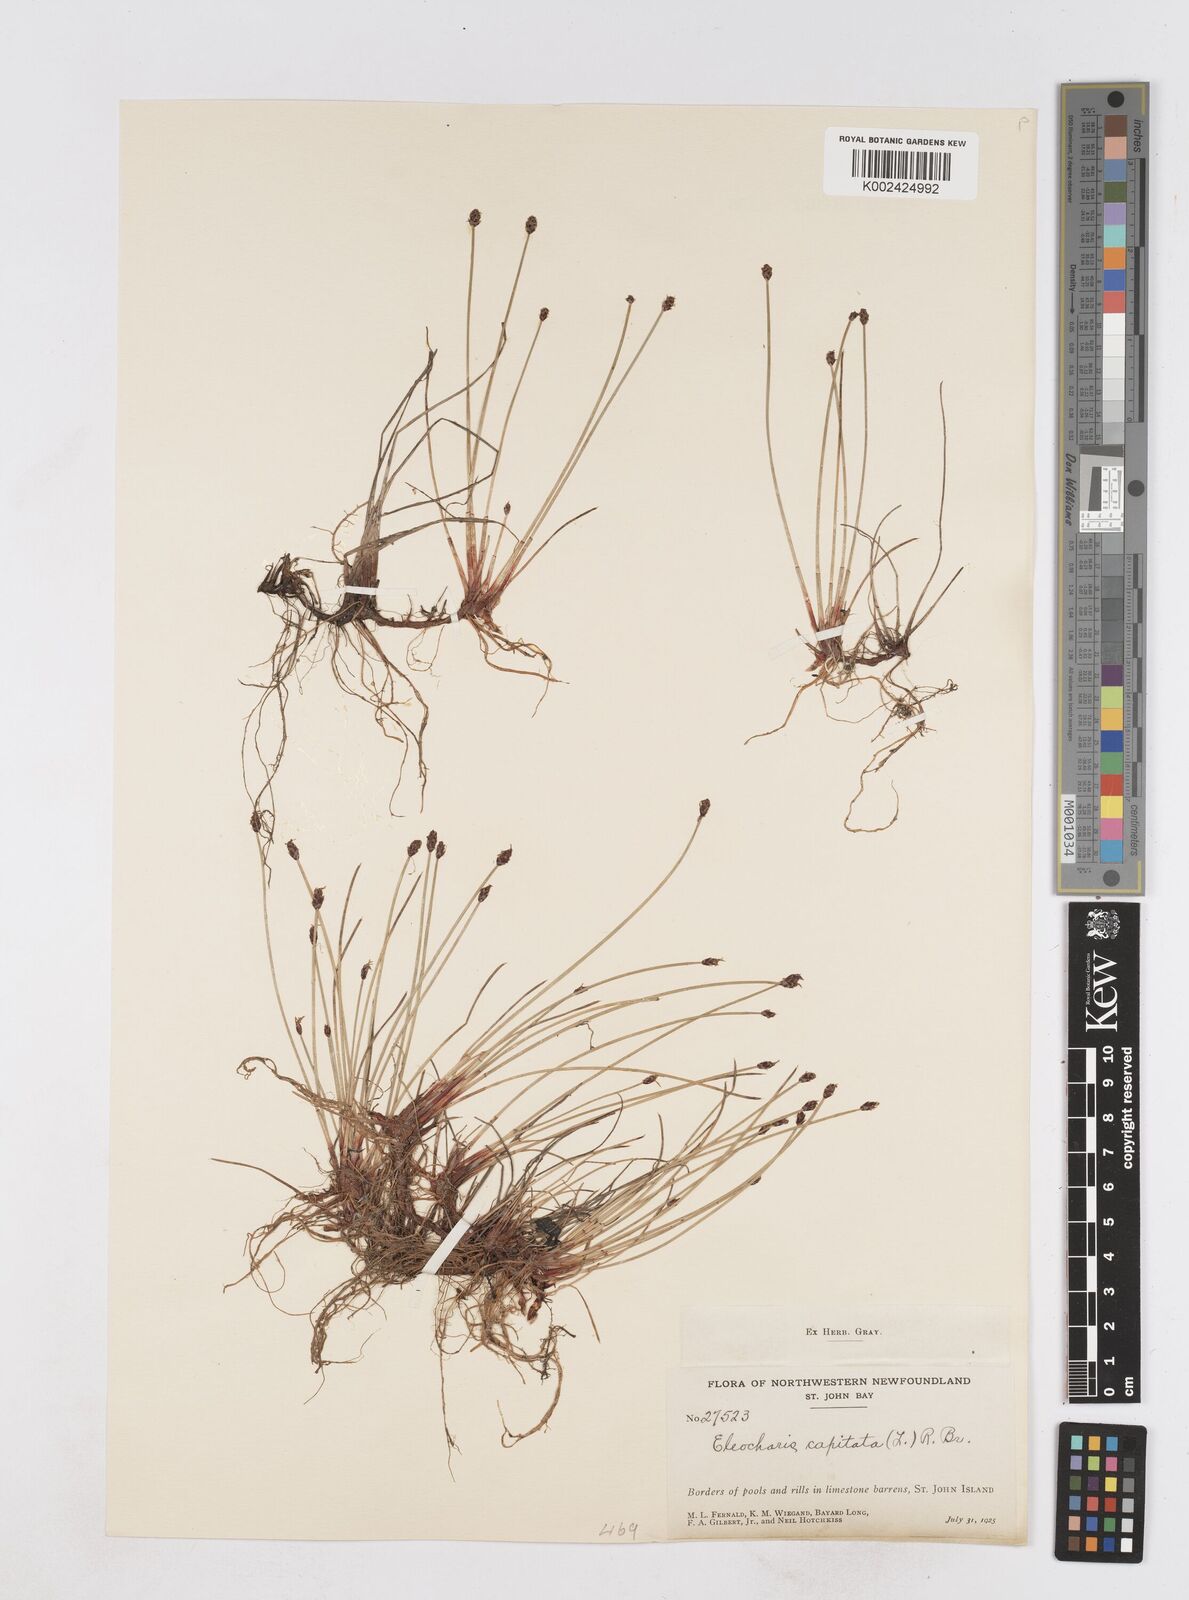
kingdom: Plantae
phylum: Tracheophyta
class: Liliopsida
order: Poales
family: Cyperaceae
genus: Eleocharis
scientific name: Eleocharis geniculata
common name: Canada spikesedge
